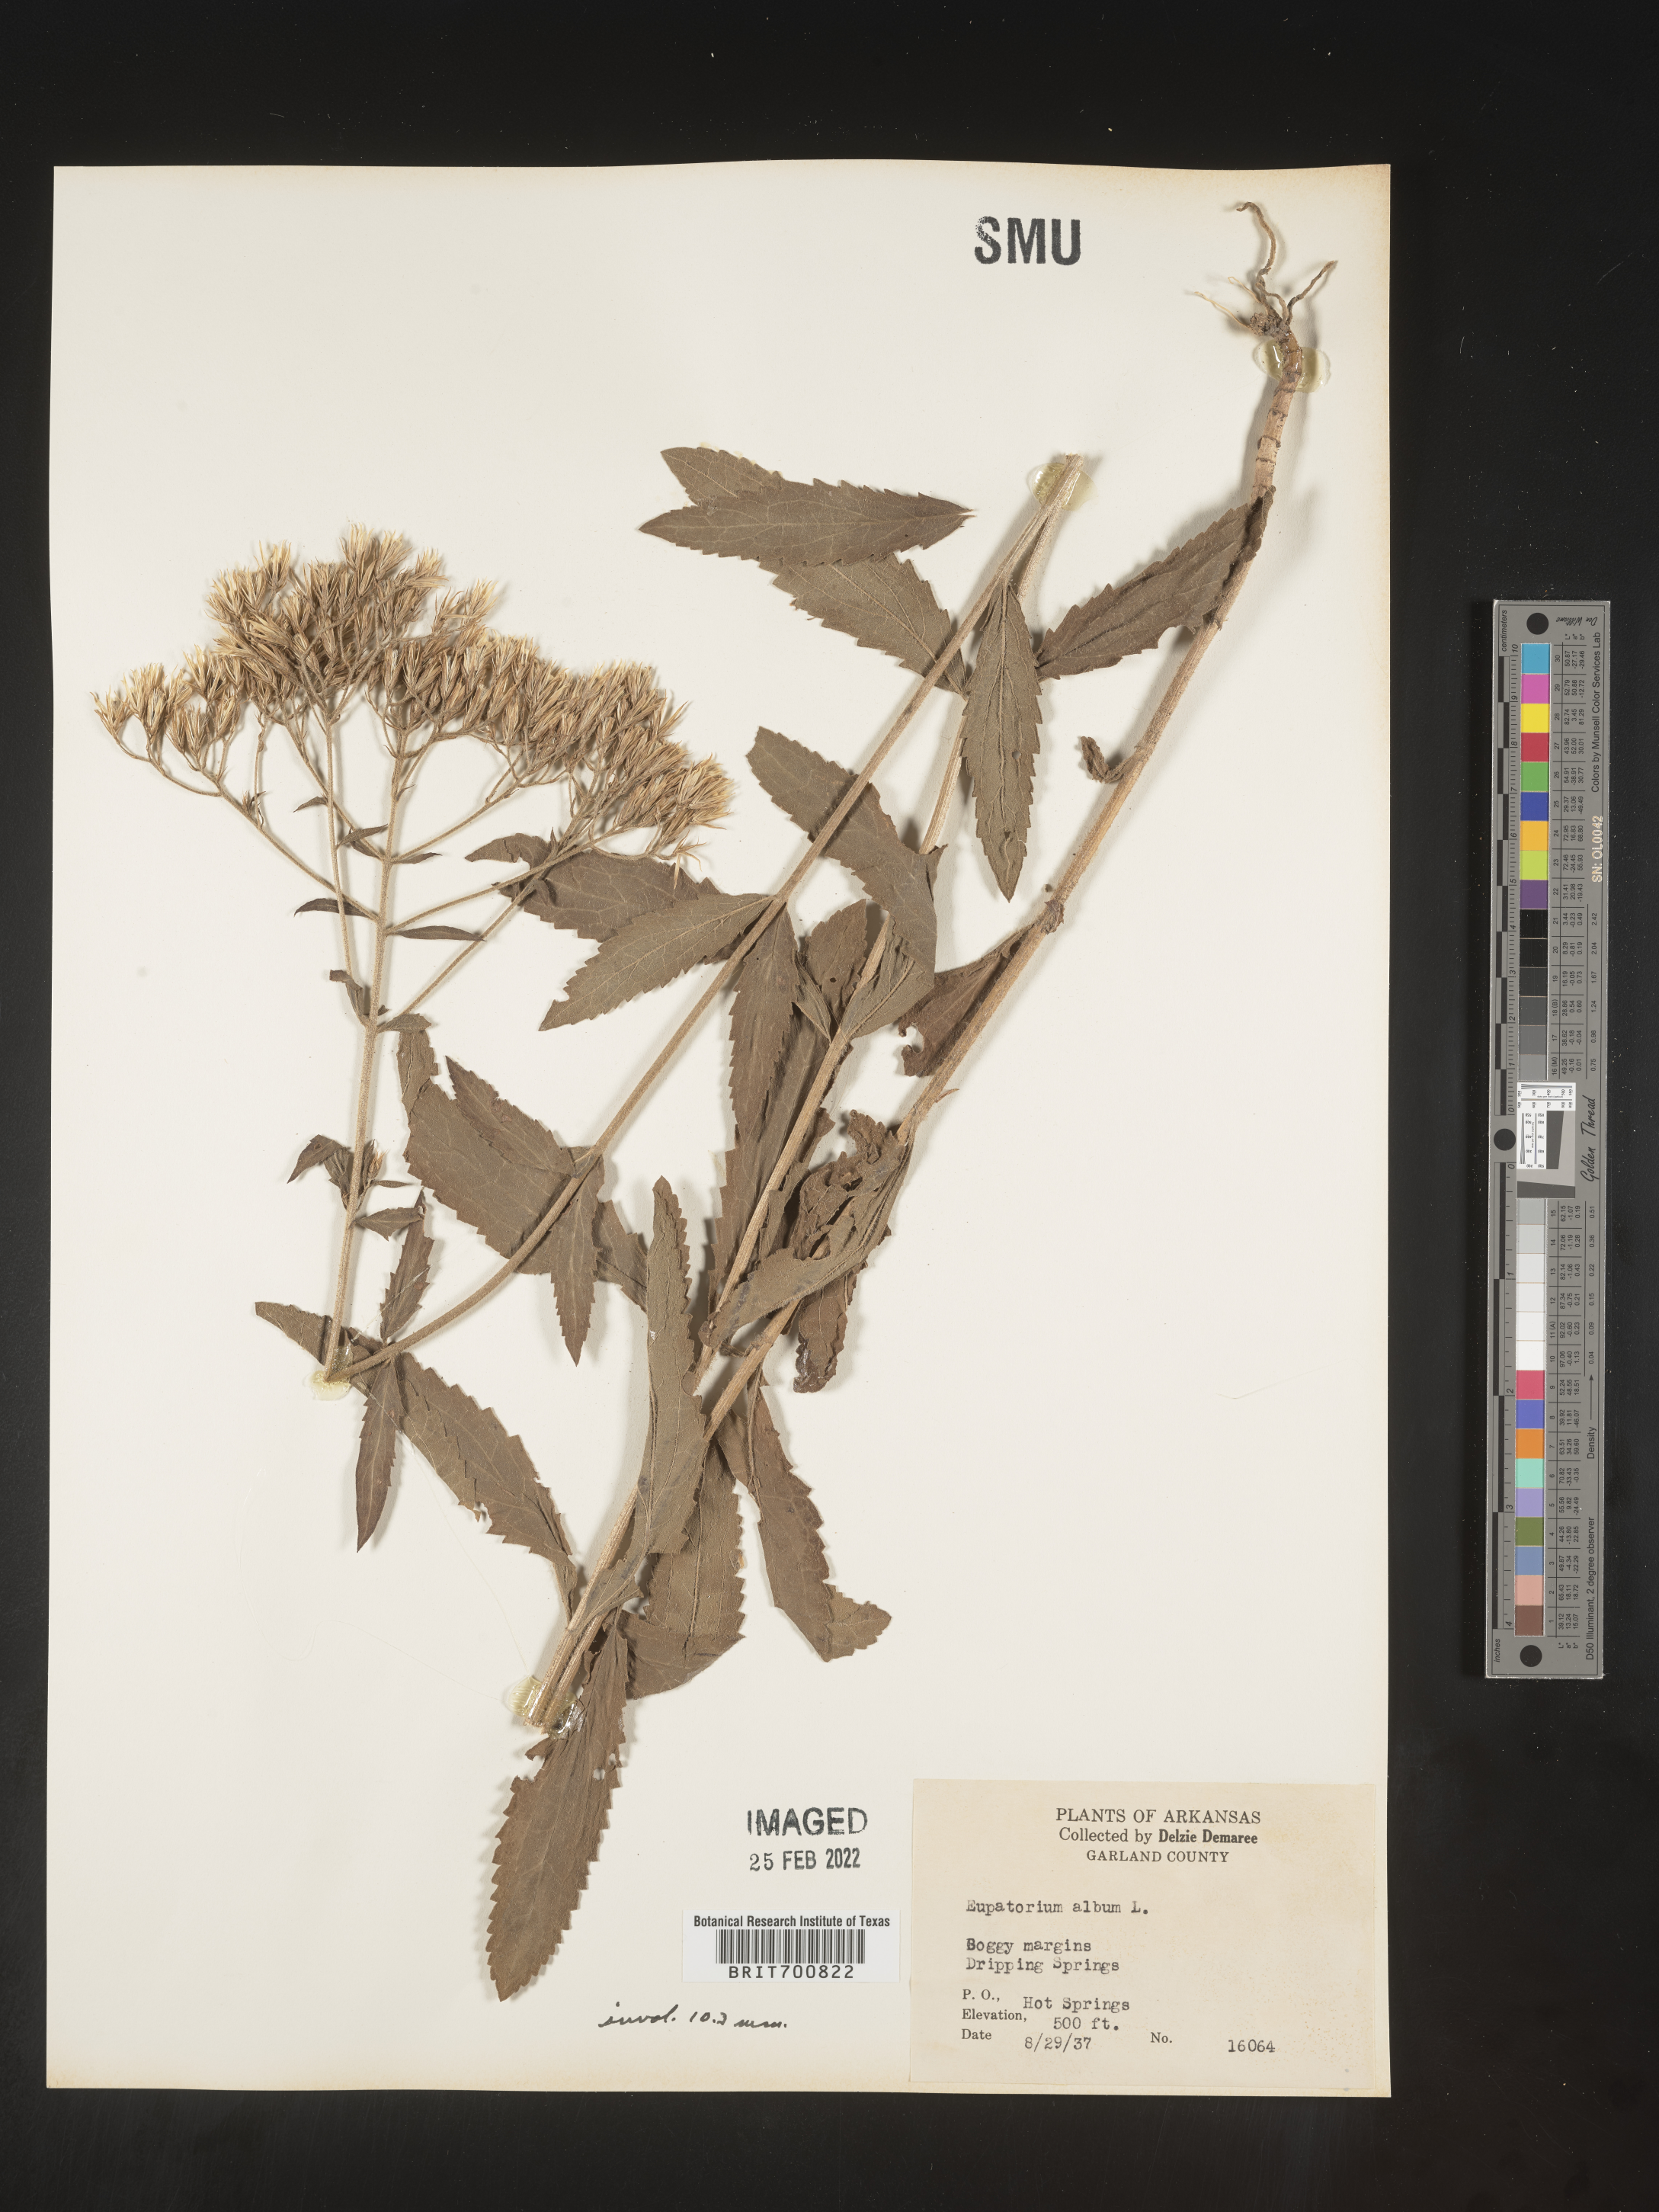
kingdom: Plantae
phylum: Tracheophyta
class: Magnoliopsida
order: Asterales
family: Asteraceae
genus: Eupatorium
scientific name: Eupatorium album
